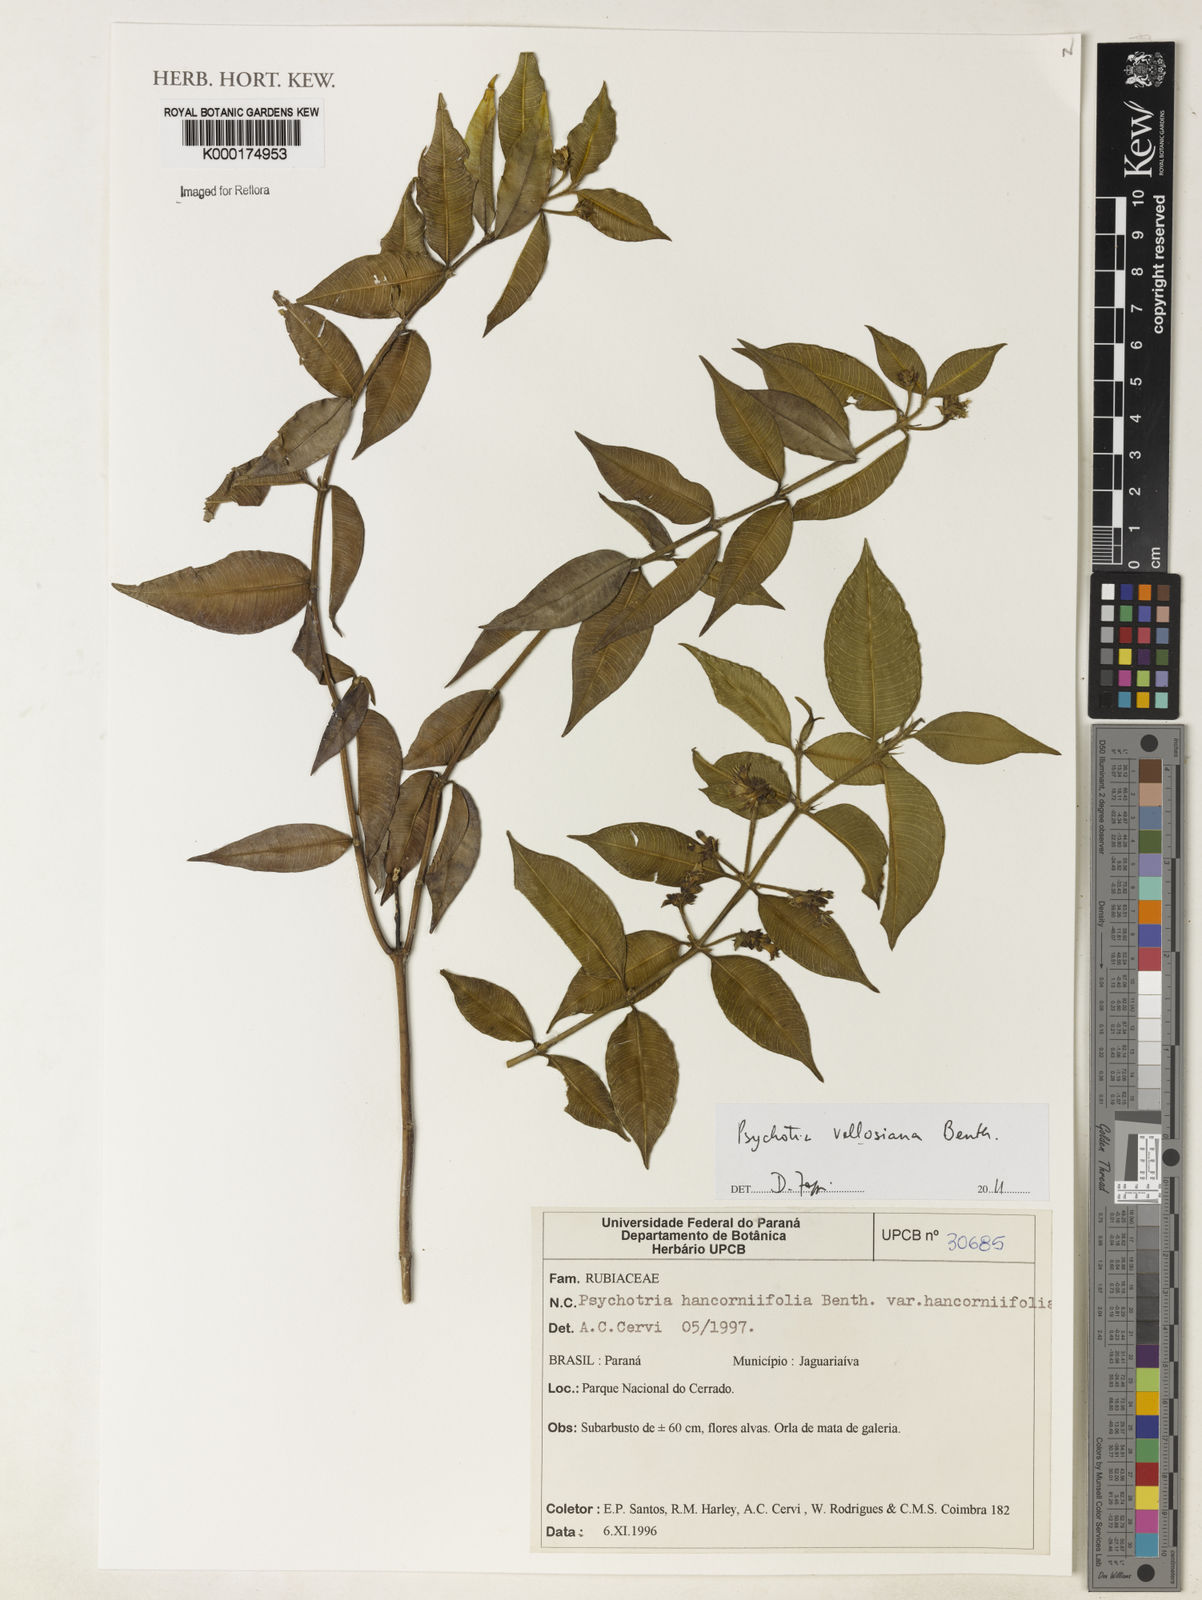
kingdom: Plantae
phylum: Tracheophyta
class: Magnoliopsida
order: Gentianales
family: Rubiaceae
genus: Palicourea
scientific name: Palicourea sessilis
